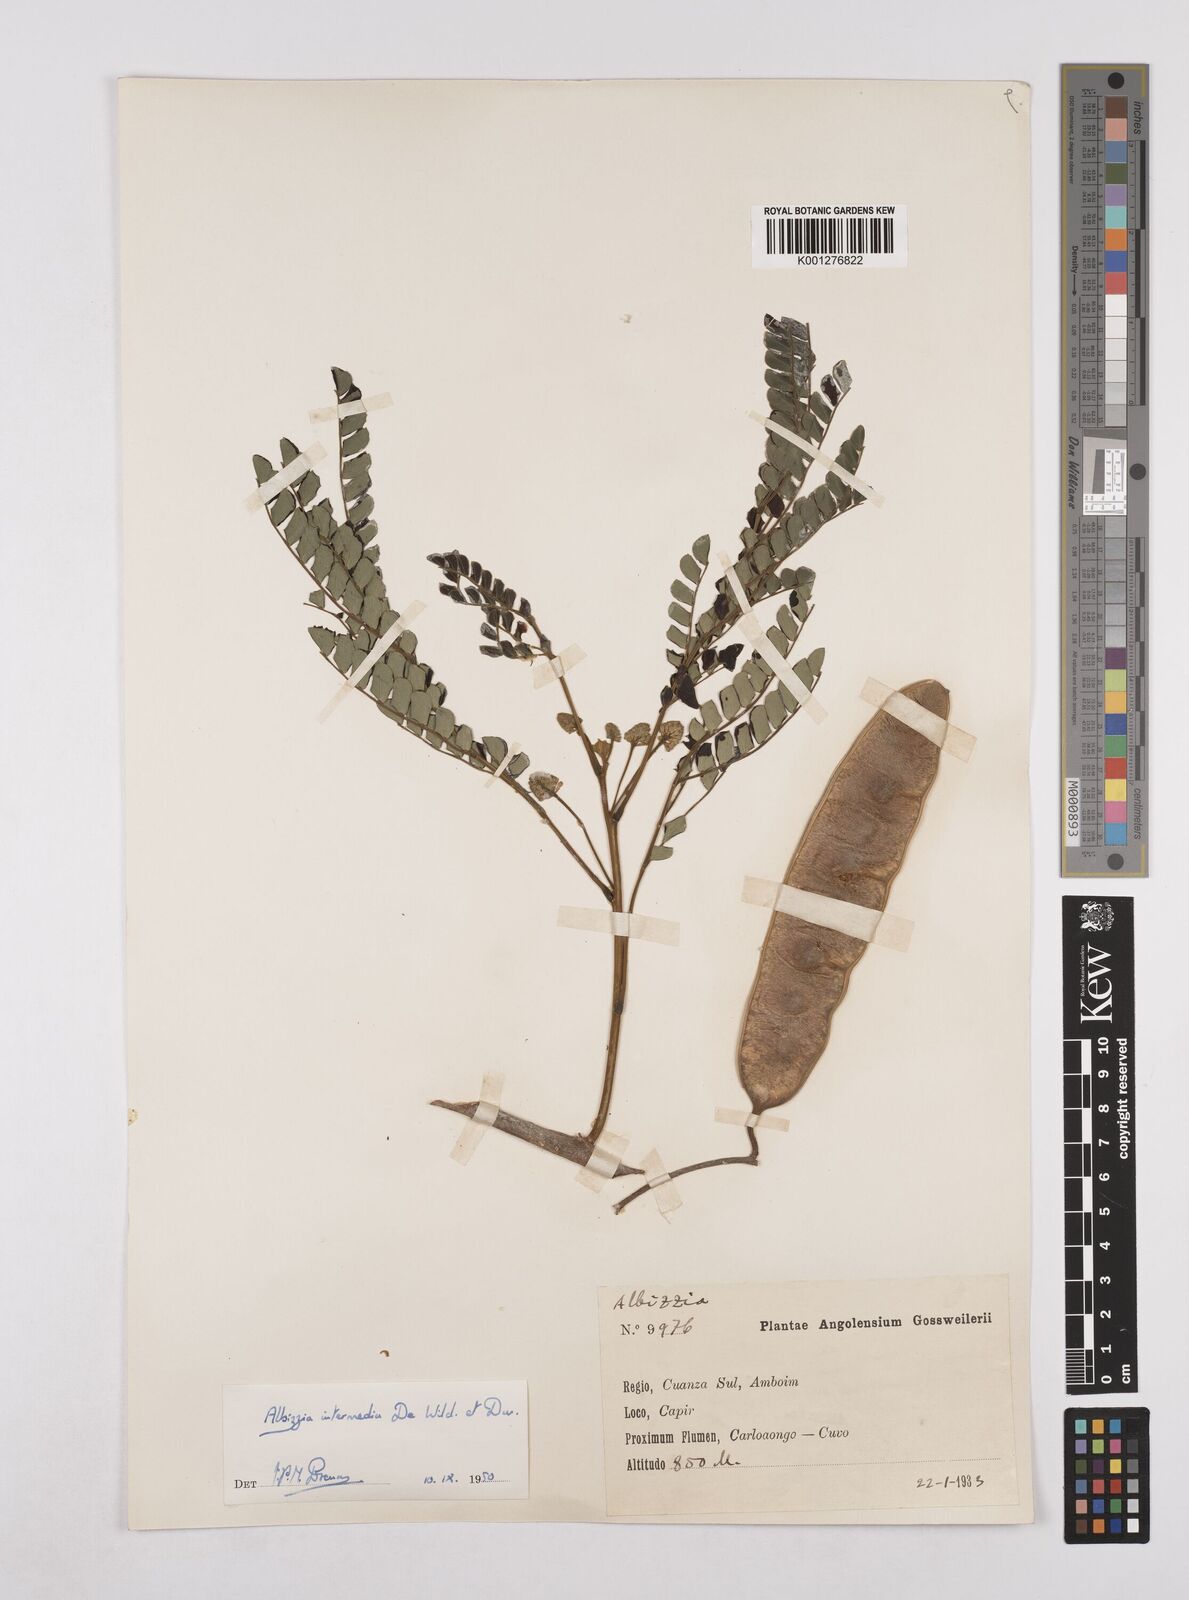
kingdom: Plantae
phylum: Tracheophyta
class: Magnoliopsida
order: Fabales
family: Fabaceae
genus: Albizia
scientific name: Albizia adianthifolia
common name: West african albizia
